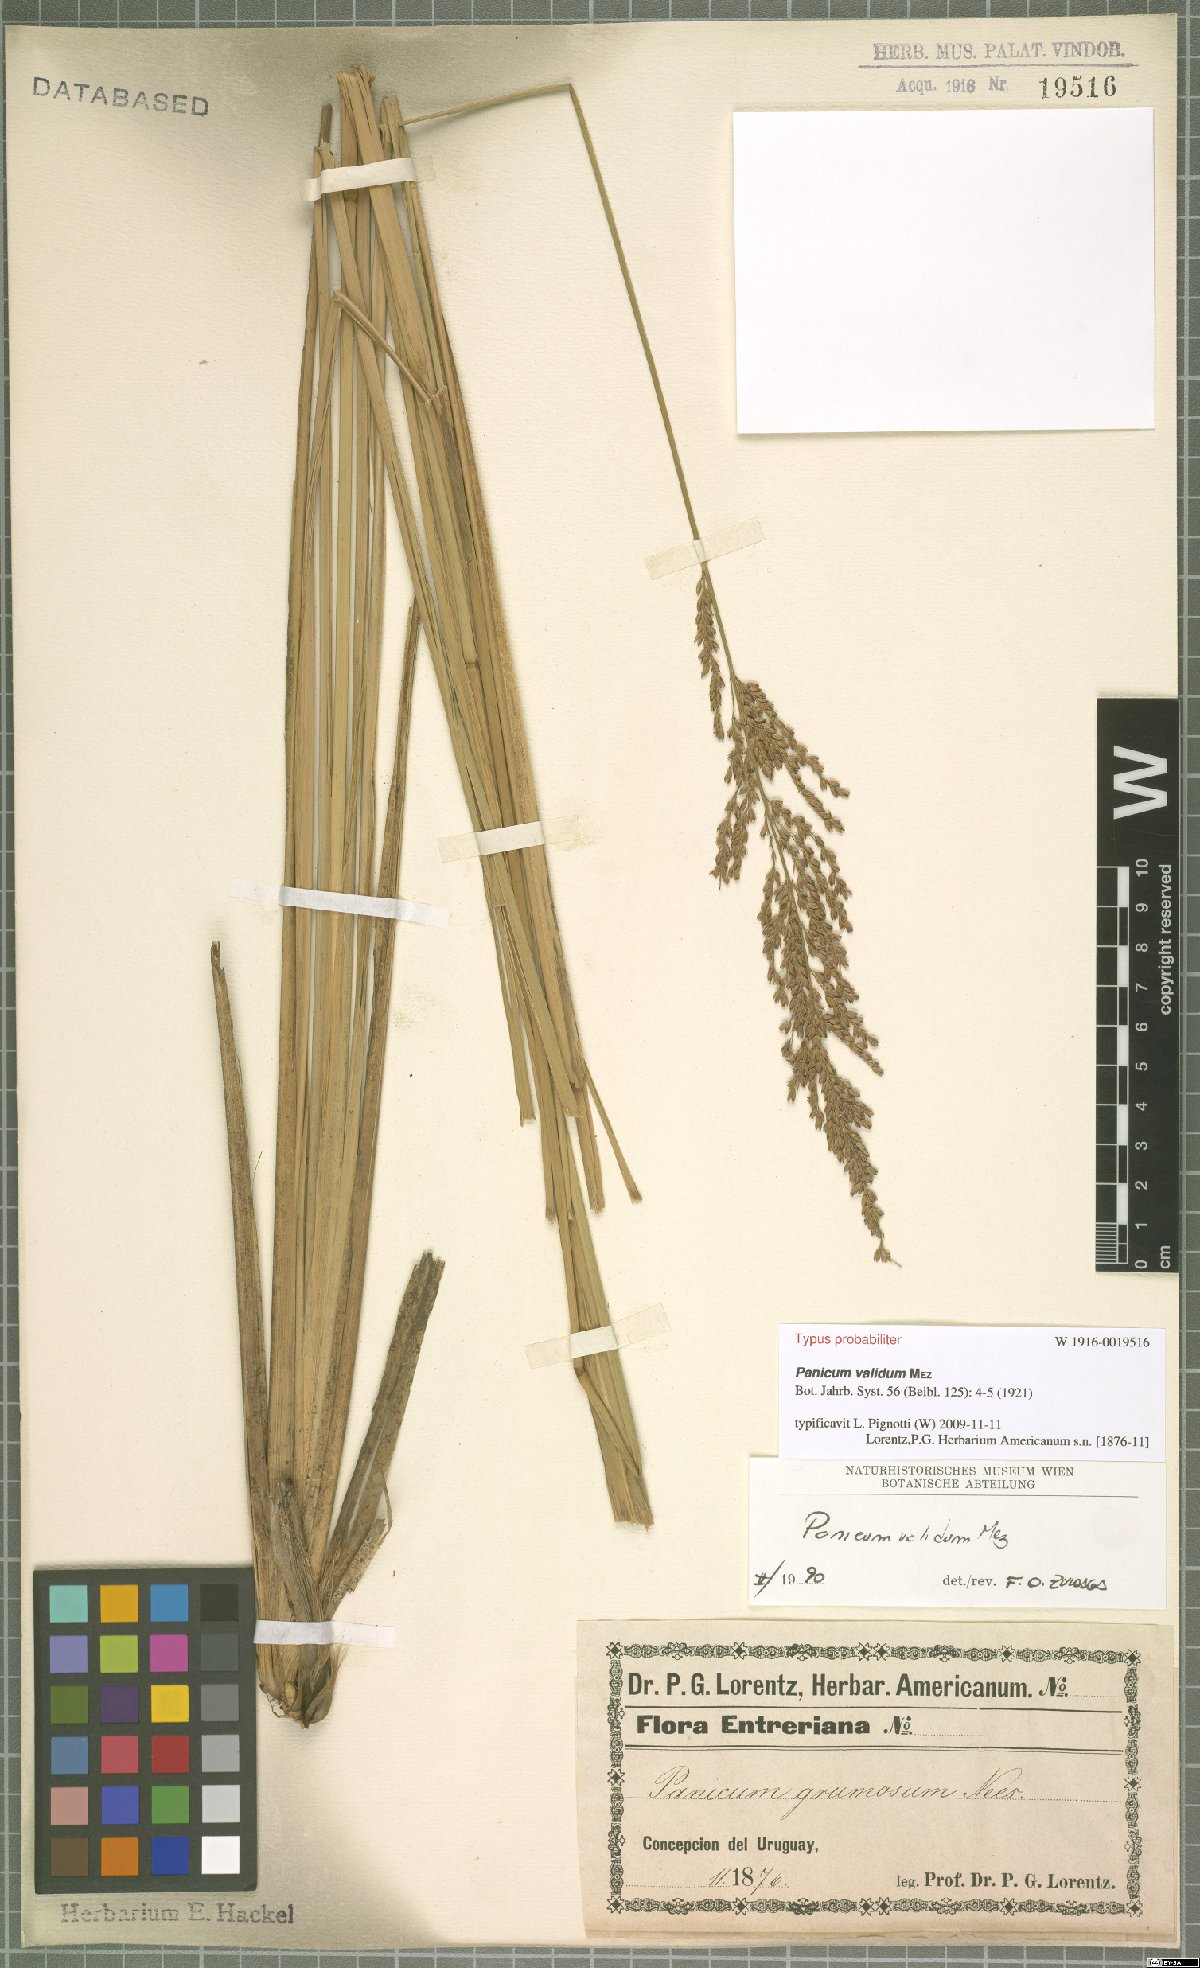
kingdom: Plantae
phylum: Tracheophyta
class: Liliopsida
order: Poales
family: Poaceae
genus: Osvaldoa
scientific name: Osvaldoa valida
